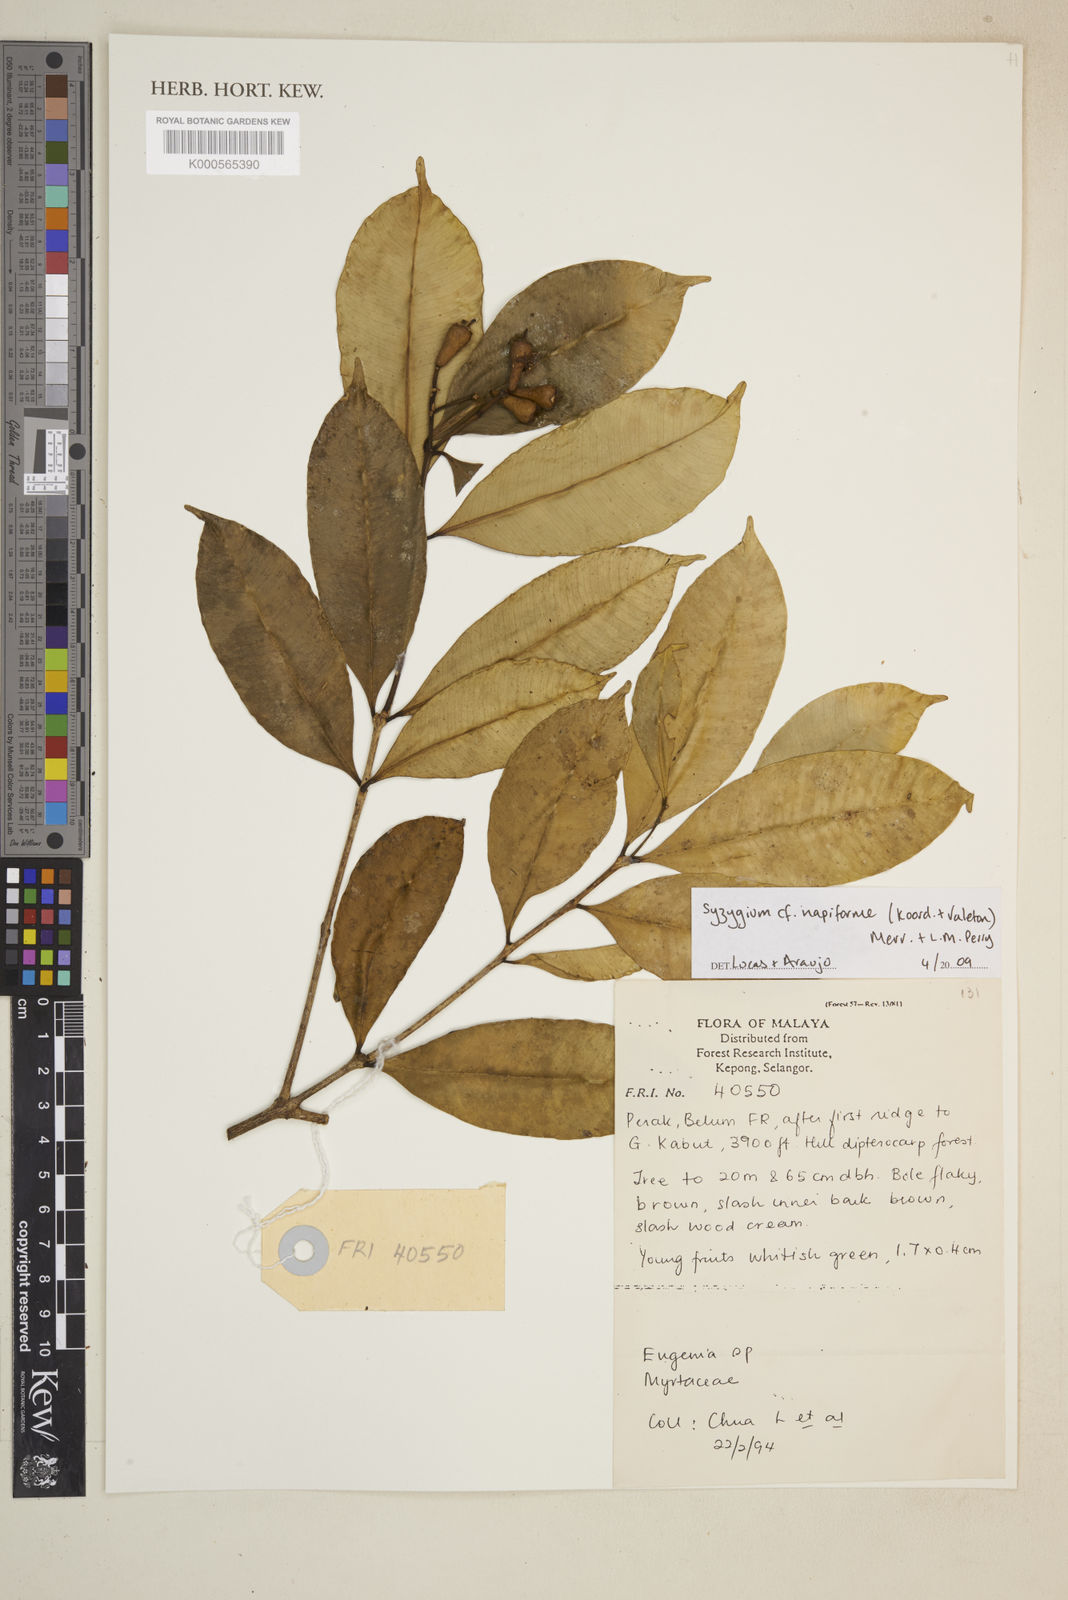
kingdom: Plantae
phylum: Tracheophyta
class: Magnoliopsida
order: Myrtales
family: Myrtaceae
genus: Syzygium
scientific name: Syzygium napiforme
